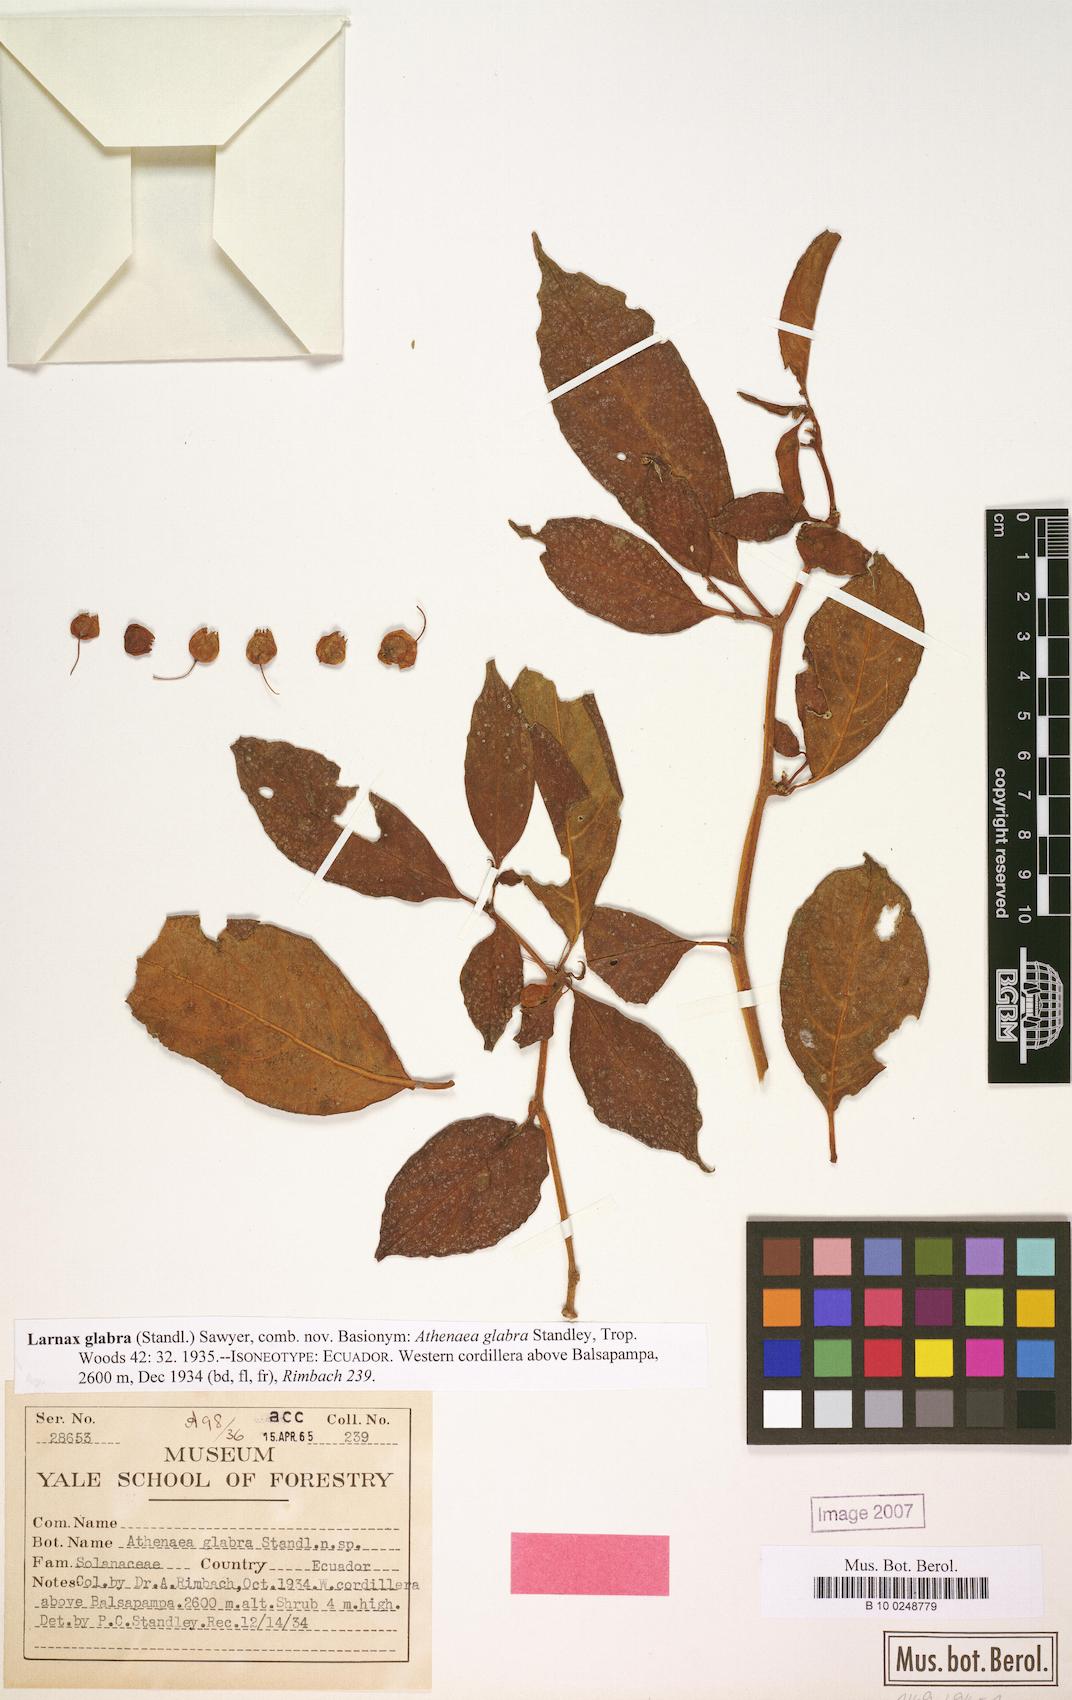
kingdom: Plantae
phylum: Tracheophyta
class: Magnoliopsida
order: Solanales
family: Solanaceae
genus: Deprea
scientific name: Deprea glabra
